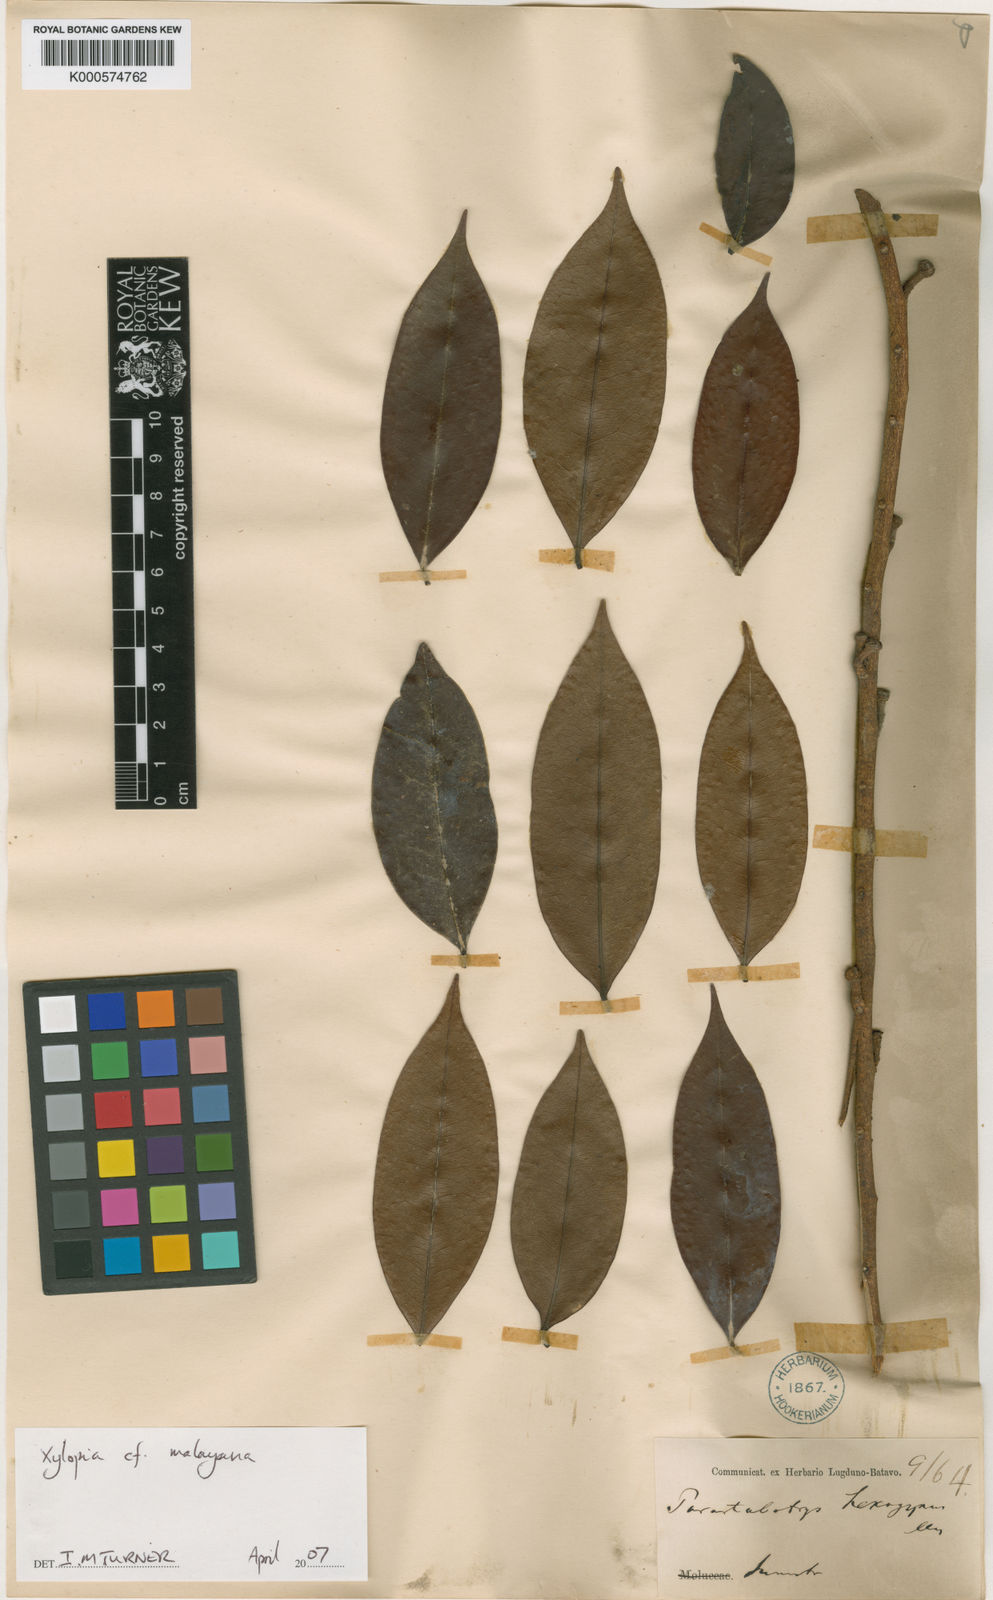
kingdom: Plantae
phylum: Tracheophyta
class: Magnoliopsida
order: Magnoliales
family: Annonaceae
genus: Xylopia
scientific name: Xylopia malayana
